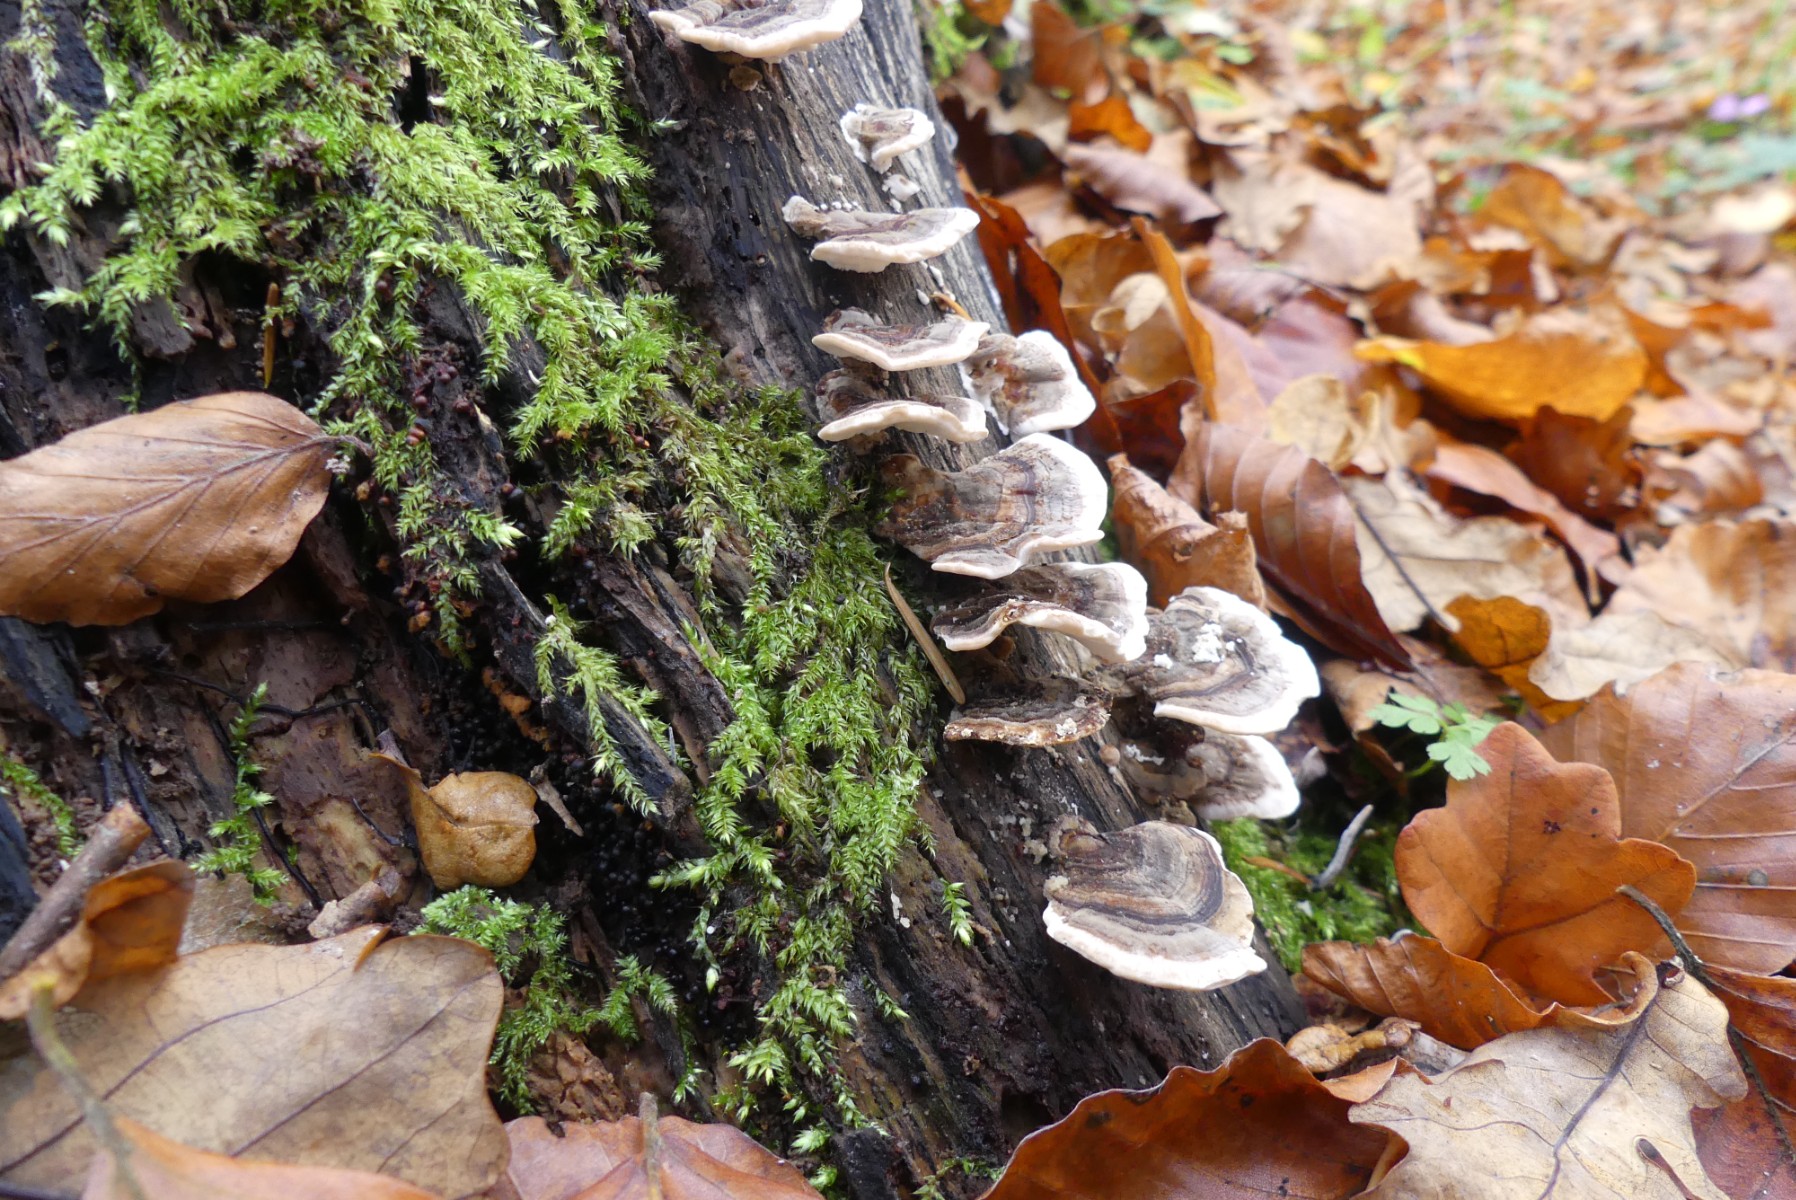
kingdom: Fungi
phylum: Basidiomycota
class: Agaricomycetes
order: Polyporales
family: Polyporaceae
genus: Trametes
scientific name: Trametes versicolor
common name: broget læderporesvamp
